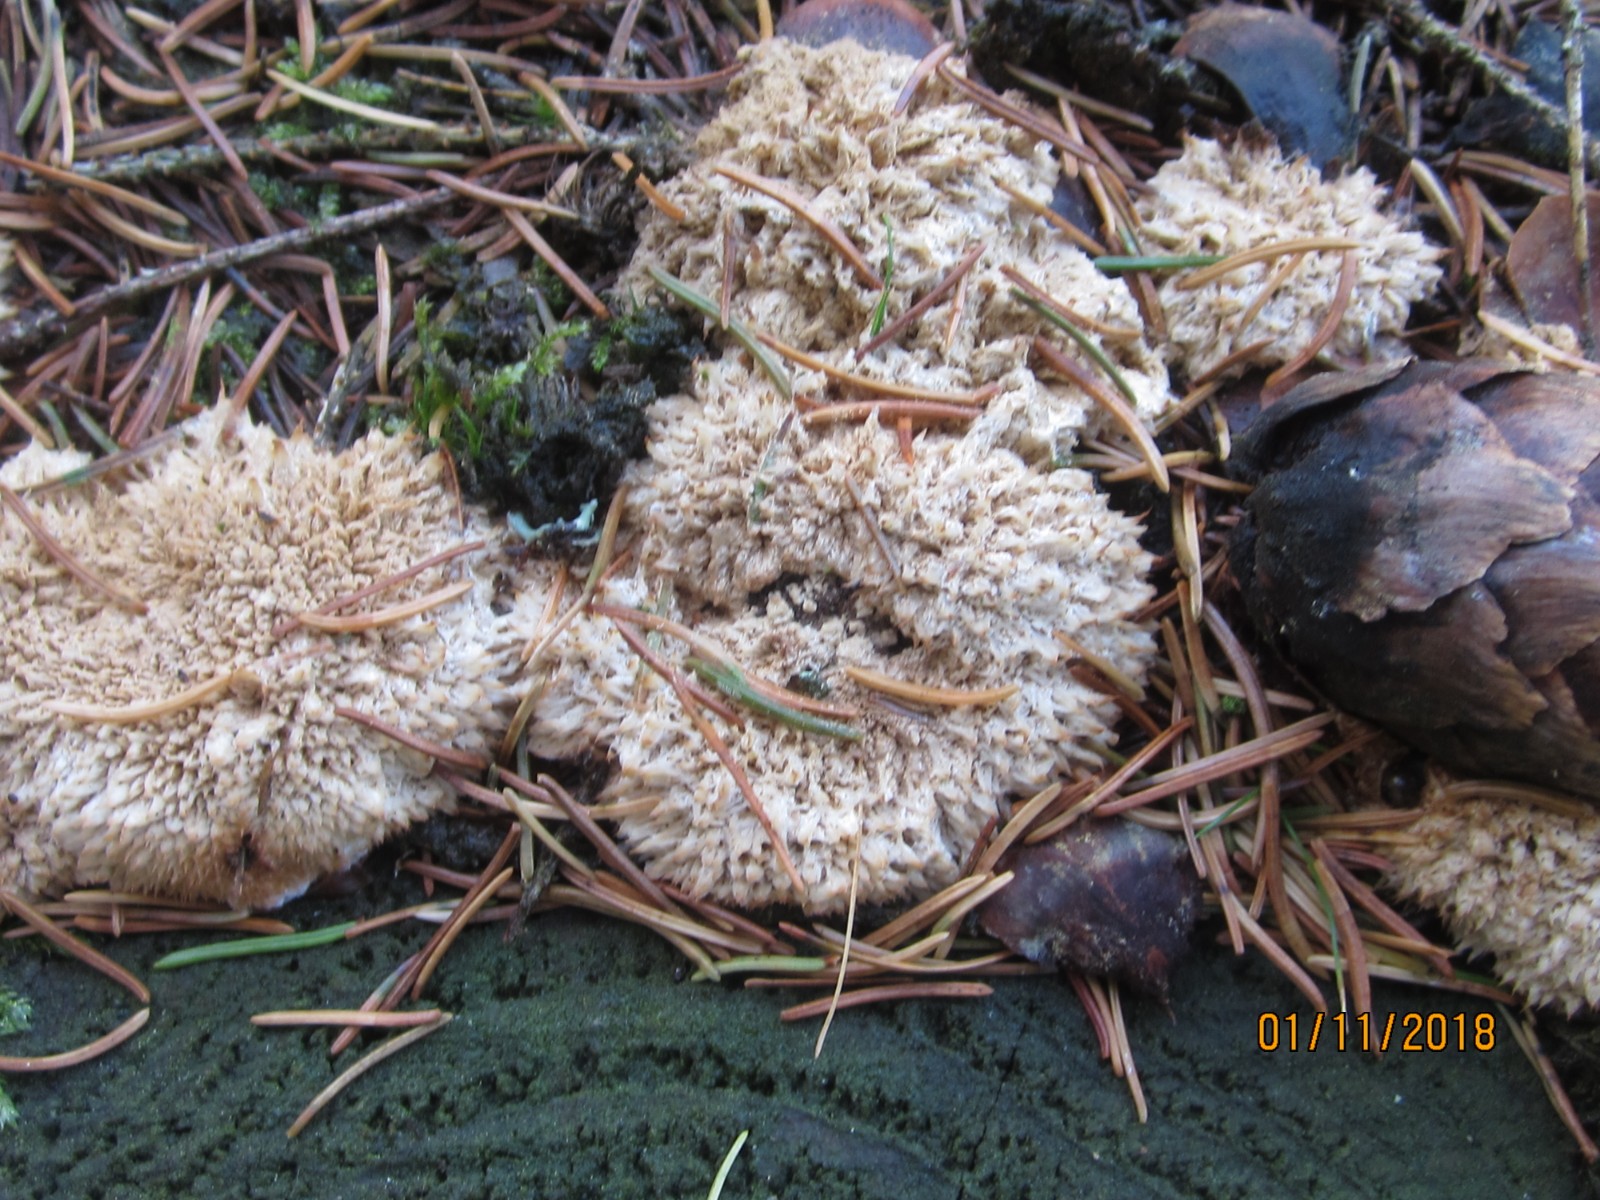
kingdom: Fungi
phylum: Basidiomycota
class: Agaricomycetes
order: Polyporales
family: Dacryobolaceae
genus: Postia
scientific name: Postia ptychogaster
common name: støvende kødporesvamp
